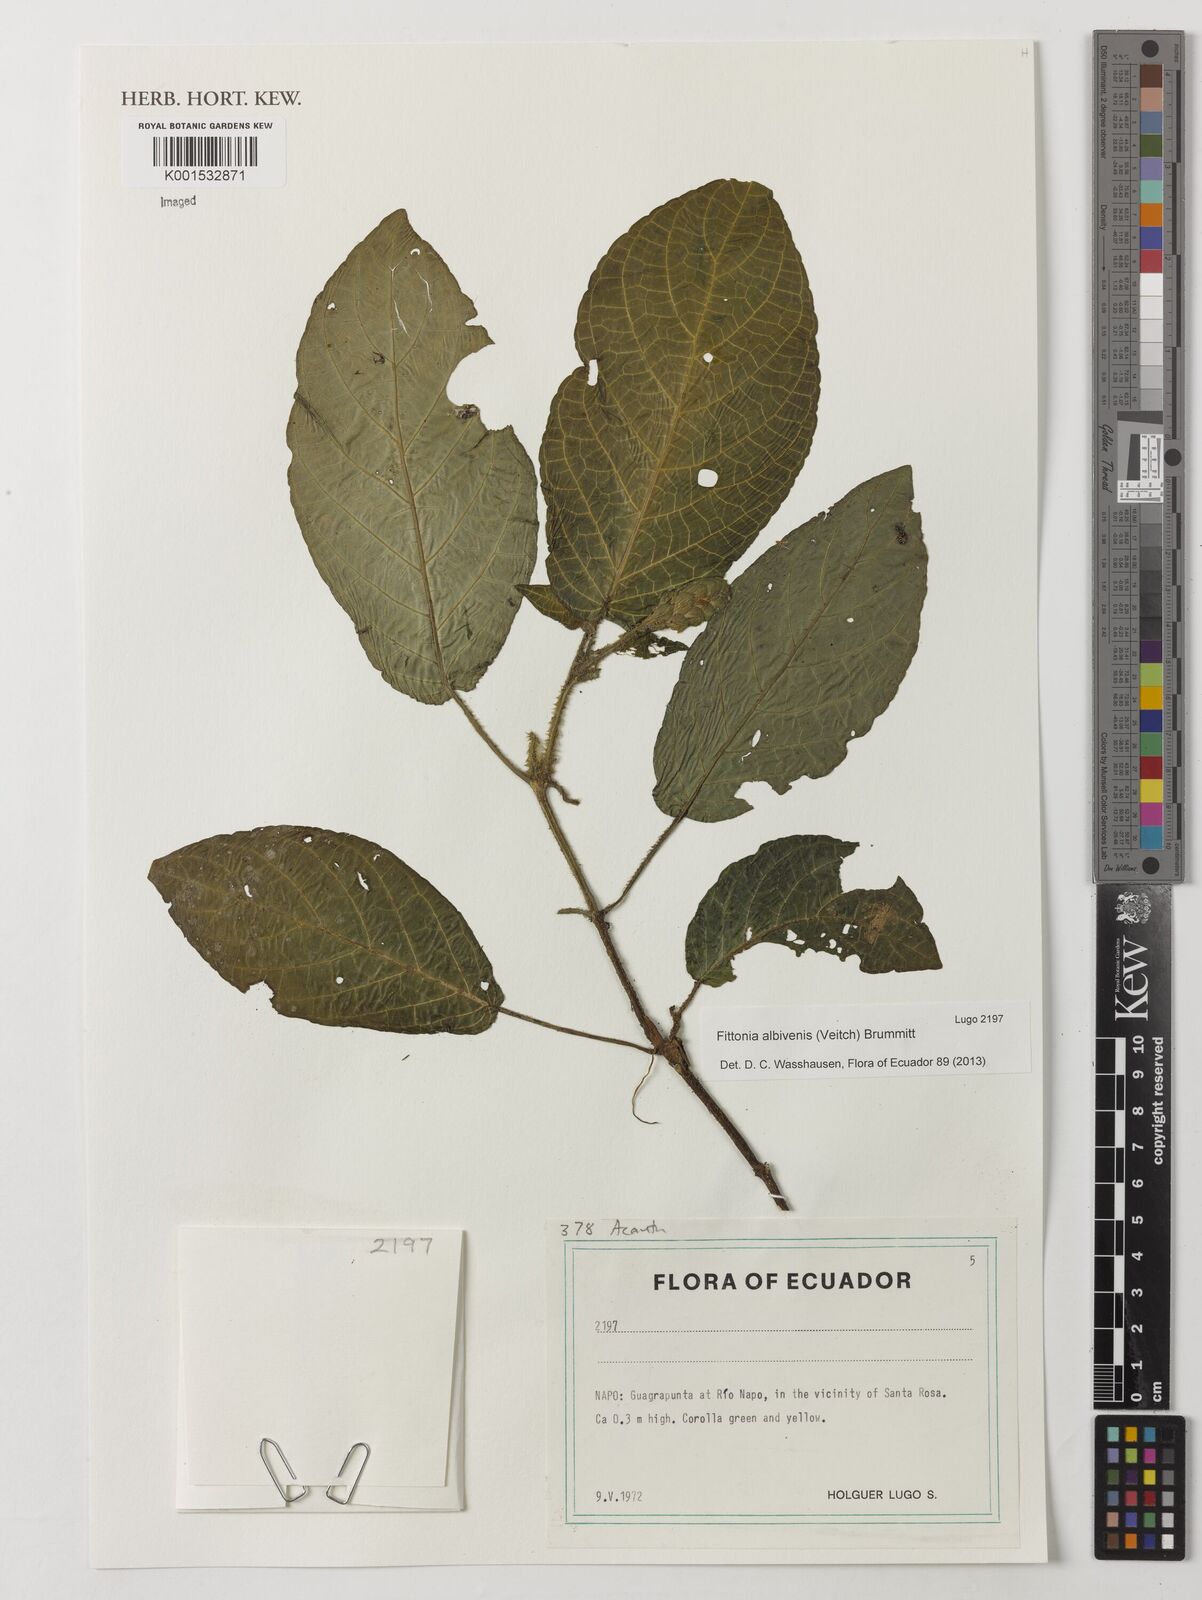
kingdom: Plantae
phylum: Tracheophyta
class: Magnoliopsida
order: Lamiales
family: Acanthaceae
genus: Fittonia
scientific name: Fittonia albivenis
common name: Mosaic-plant
